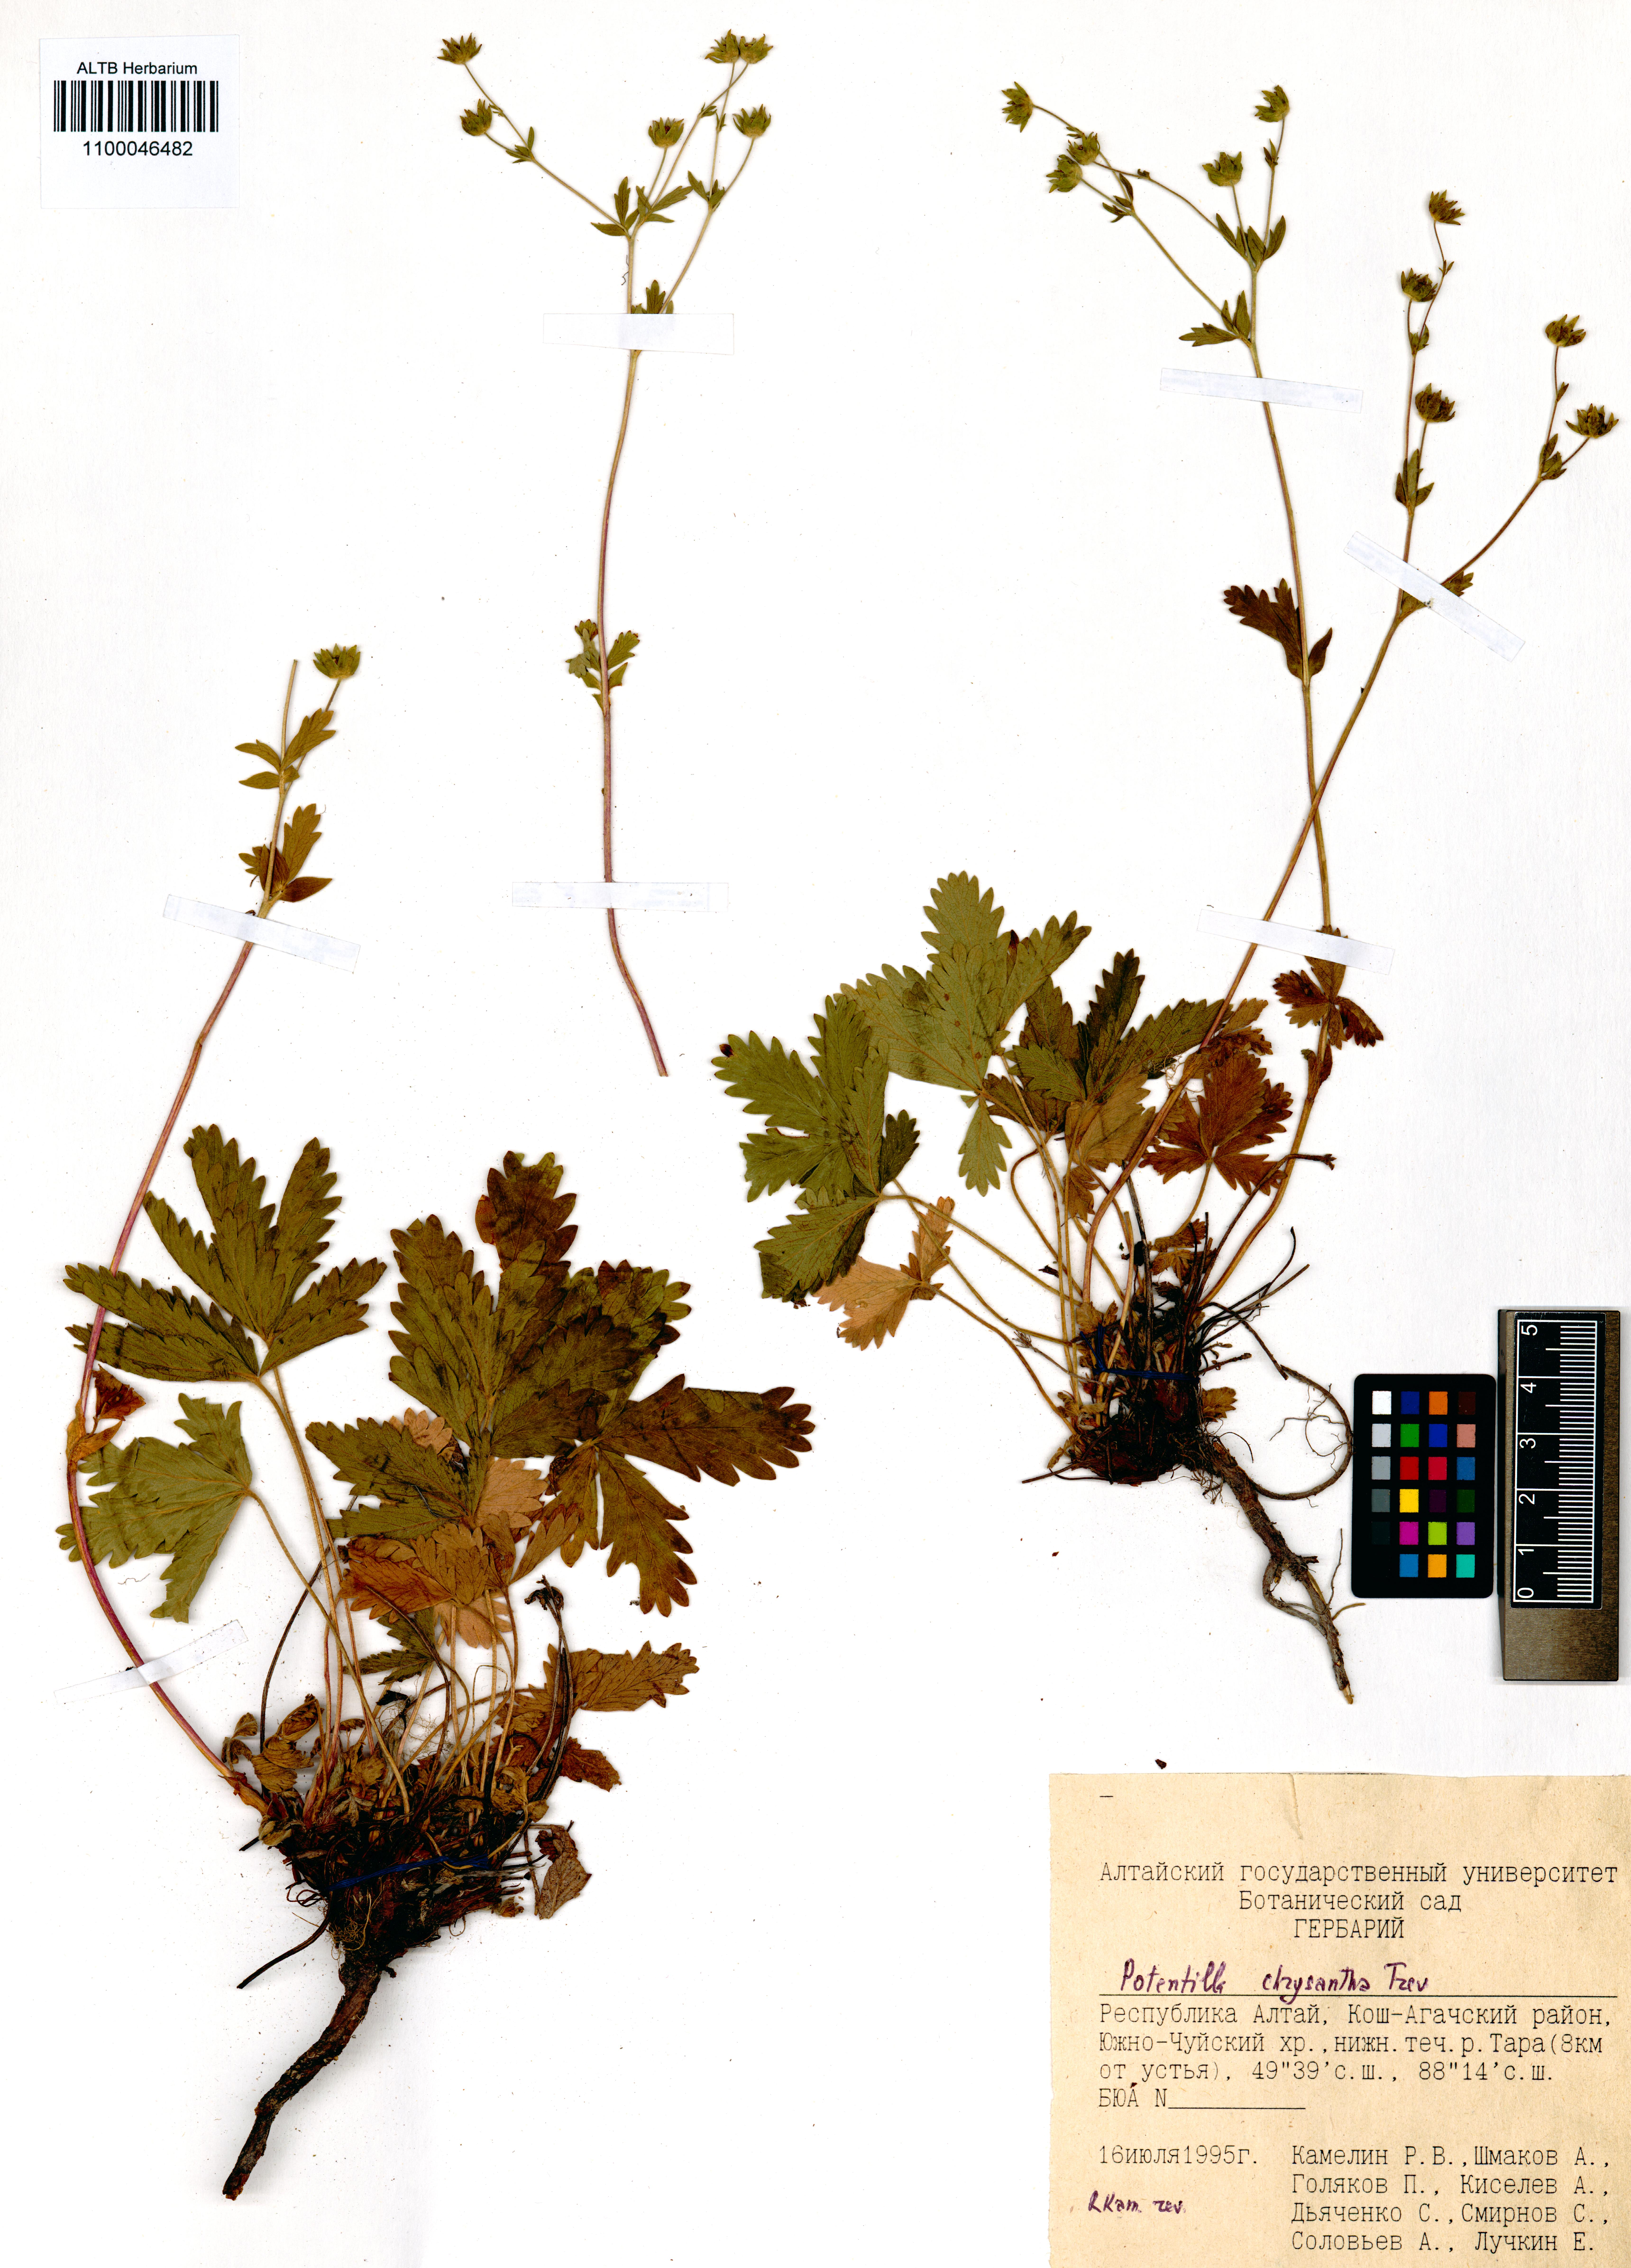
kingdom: Plantae
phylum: Tracheophyta
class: Magnoliopsida
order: Rosales
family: Rosaceae
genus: Potentilla
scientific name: Potentilla chrysantha
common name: Thuringian cinquefoil
